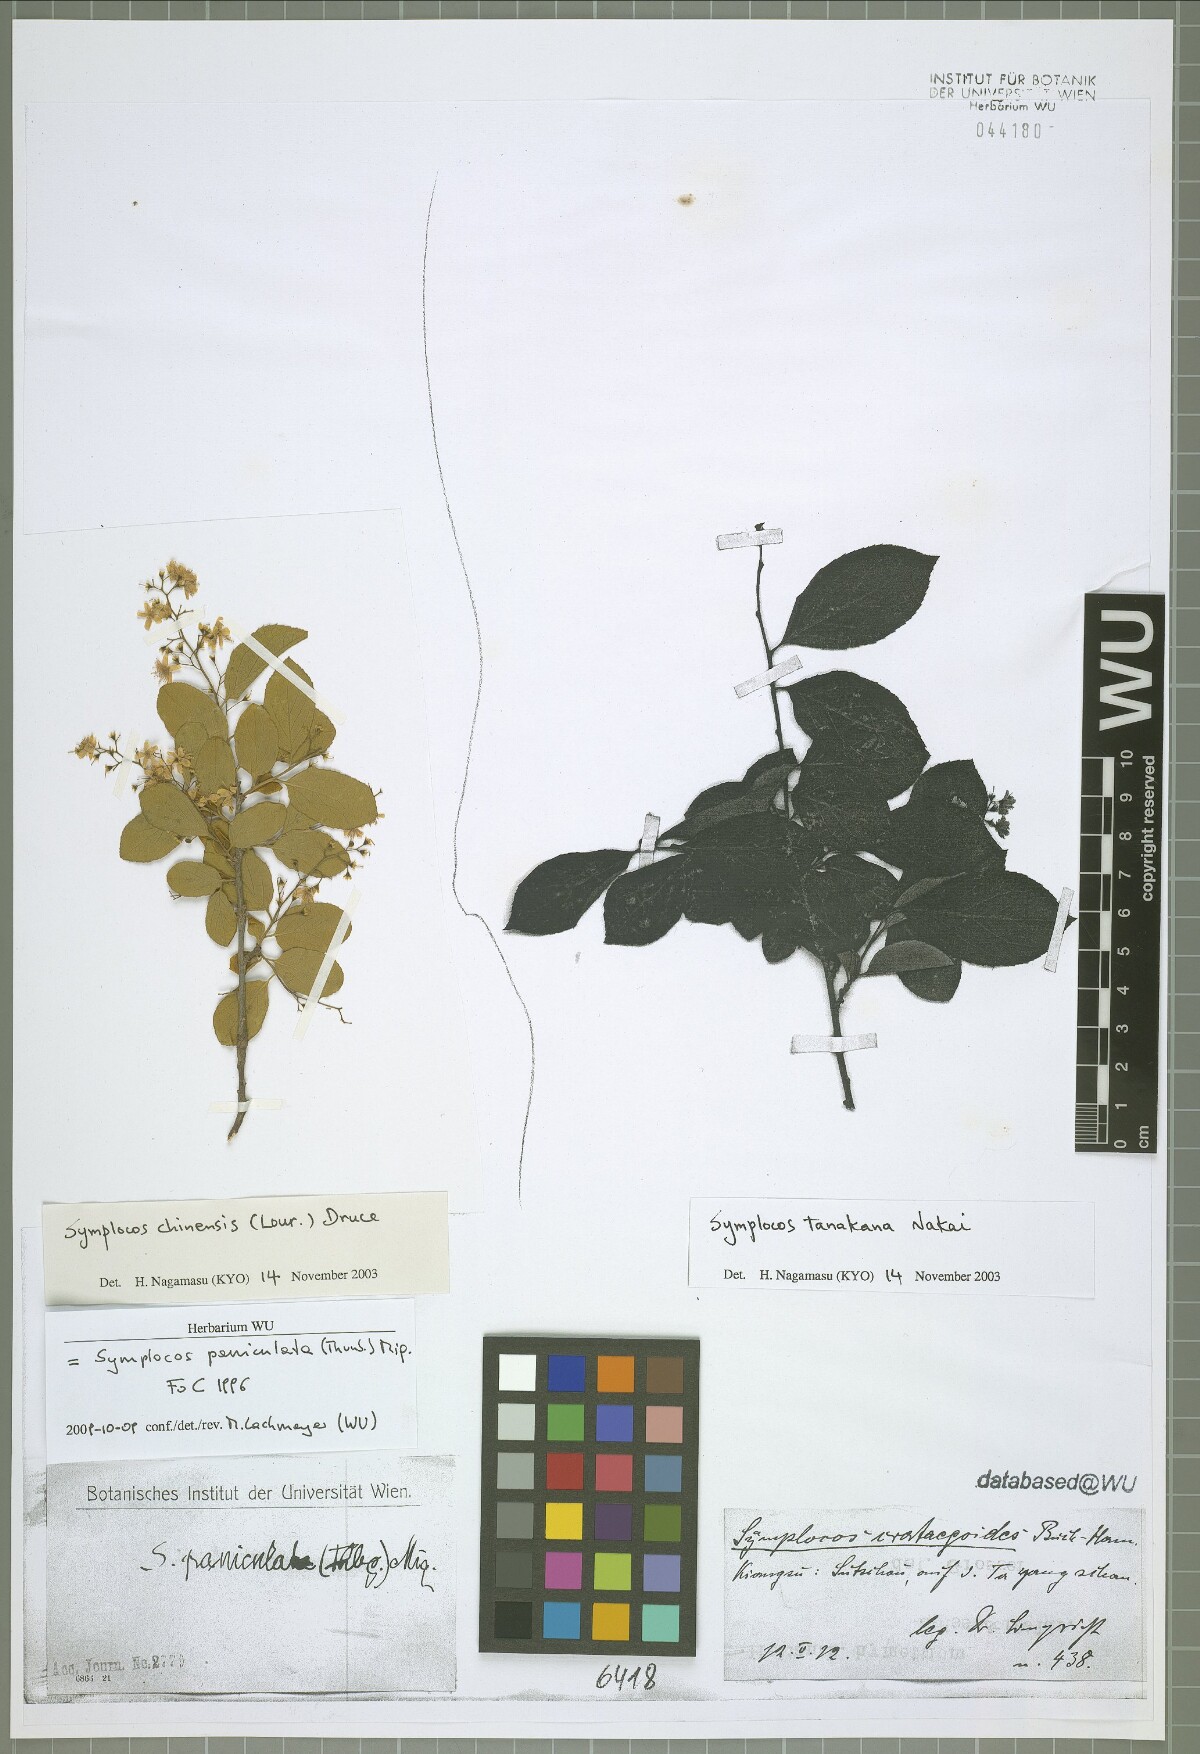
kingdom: Plantae
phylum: Tracheophyta
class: Magnoliopsida
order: Ericales
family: Symplocaceae
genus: Symplocos
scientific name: Symplocos paniculata
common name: Sapphire-berry
